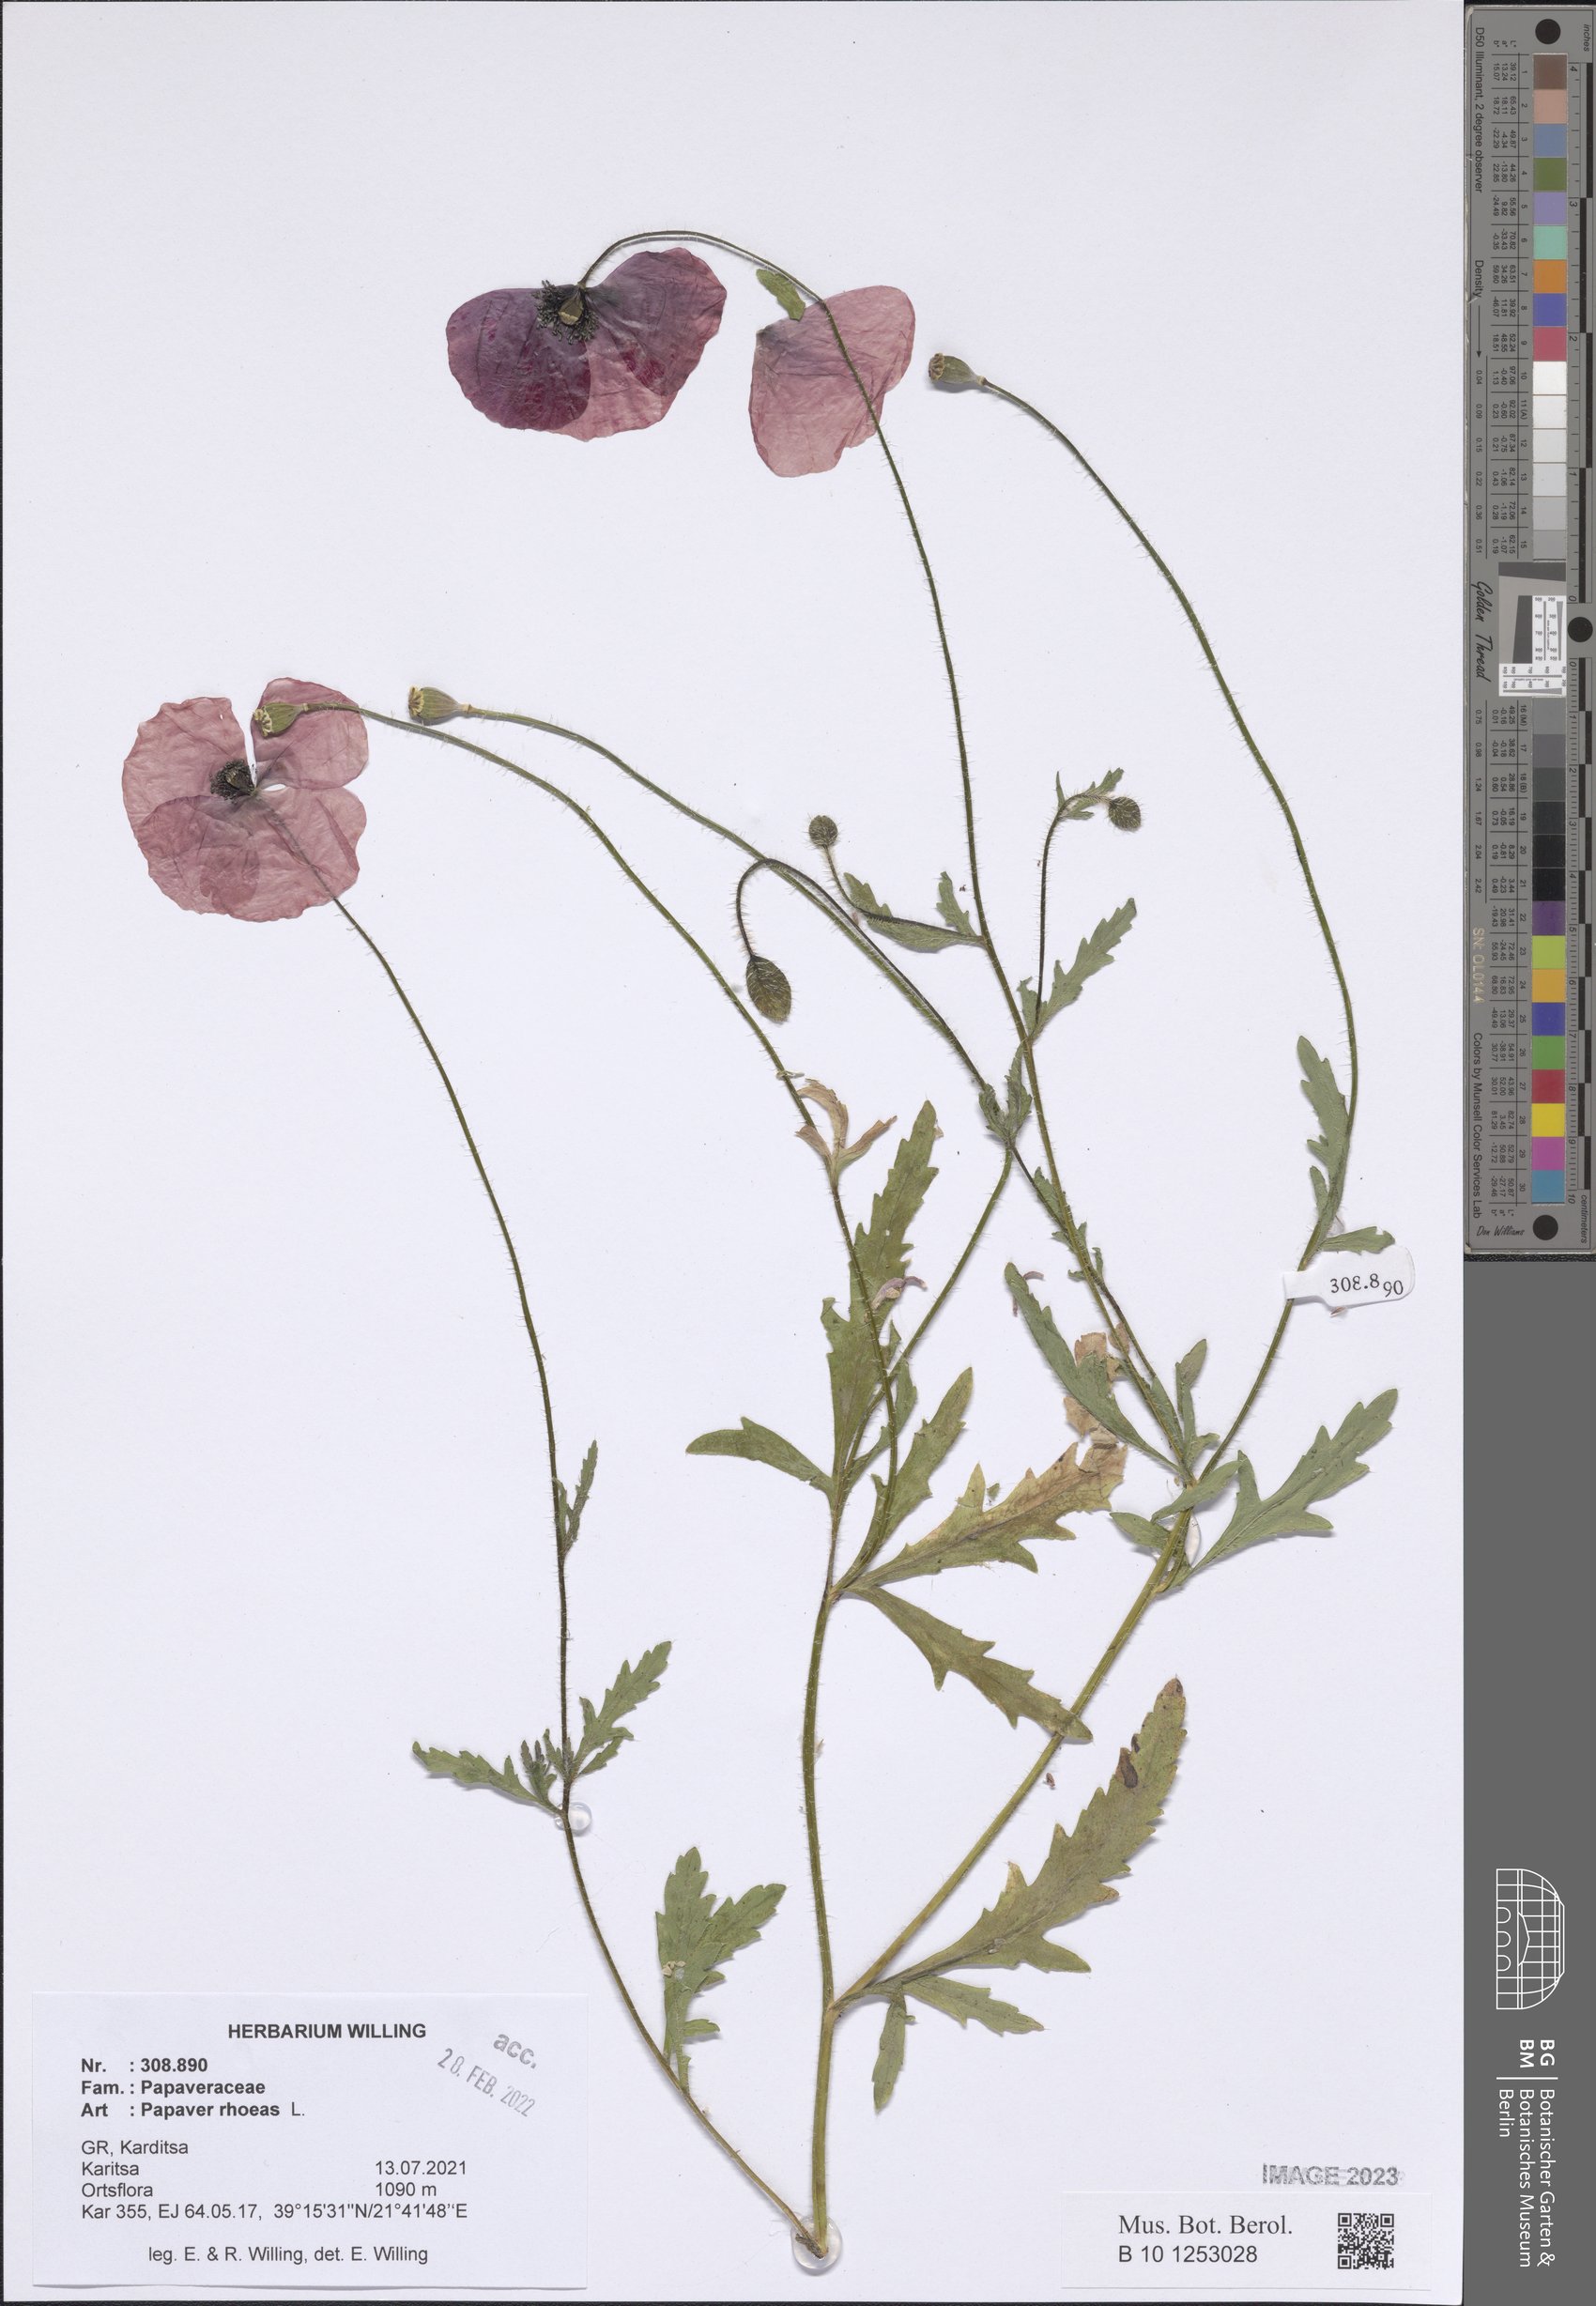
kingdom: Plantae
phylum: Tracheophyta
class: Magnoliopsida
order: Ranunculales
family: Papaveraceae
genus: Papaver
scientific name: Papaver rhoeas
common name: Corn poppy
